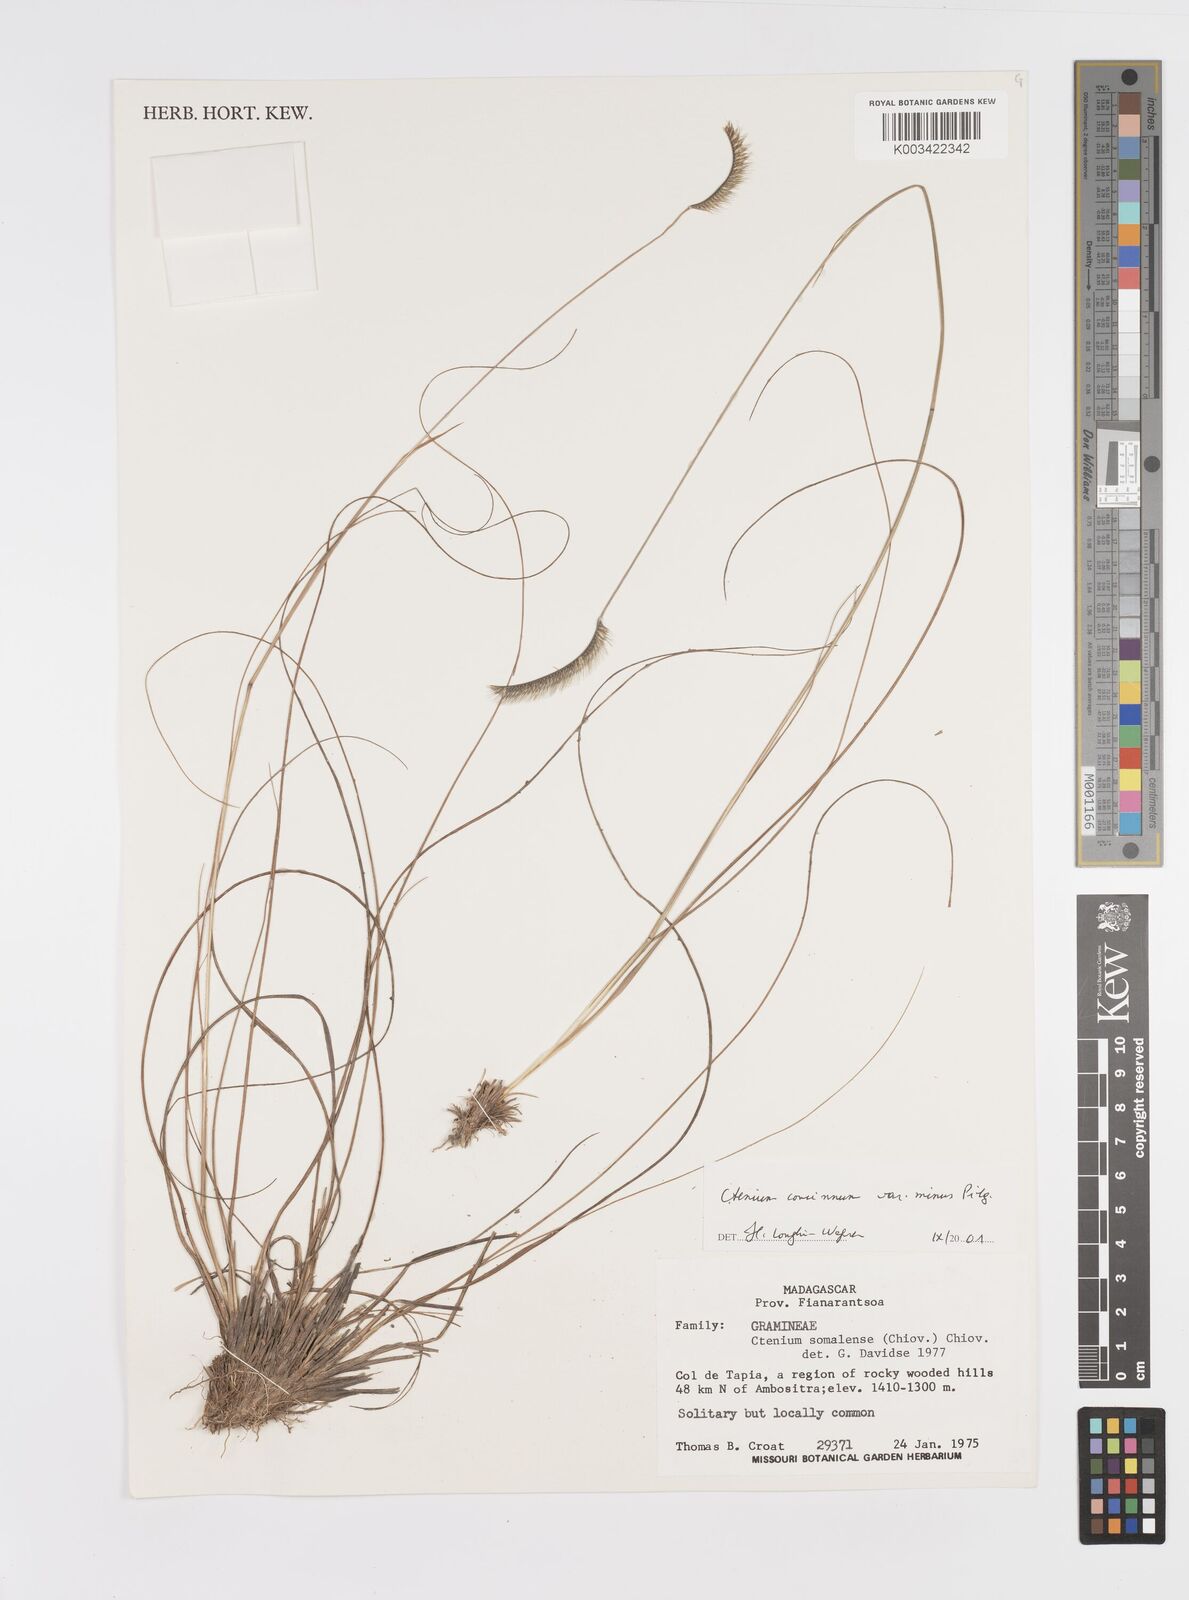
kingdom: Plantae
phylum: Tracheophyta
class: Liliopsida
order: Poales
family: Poaceae
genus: Ctenium
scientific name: Ctenium concinnum
